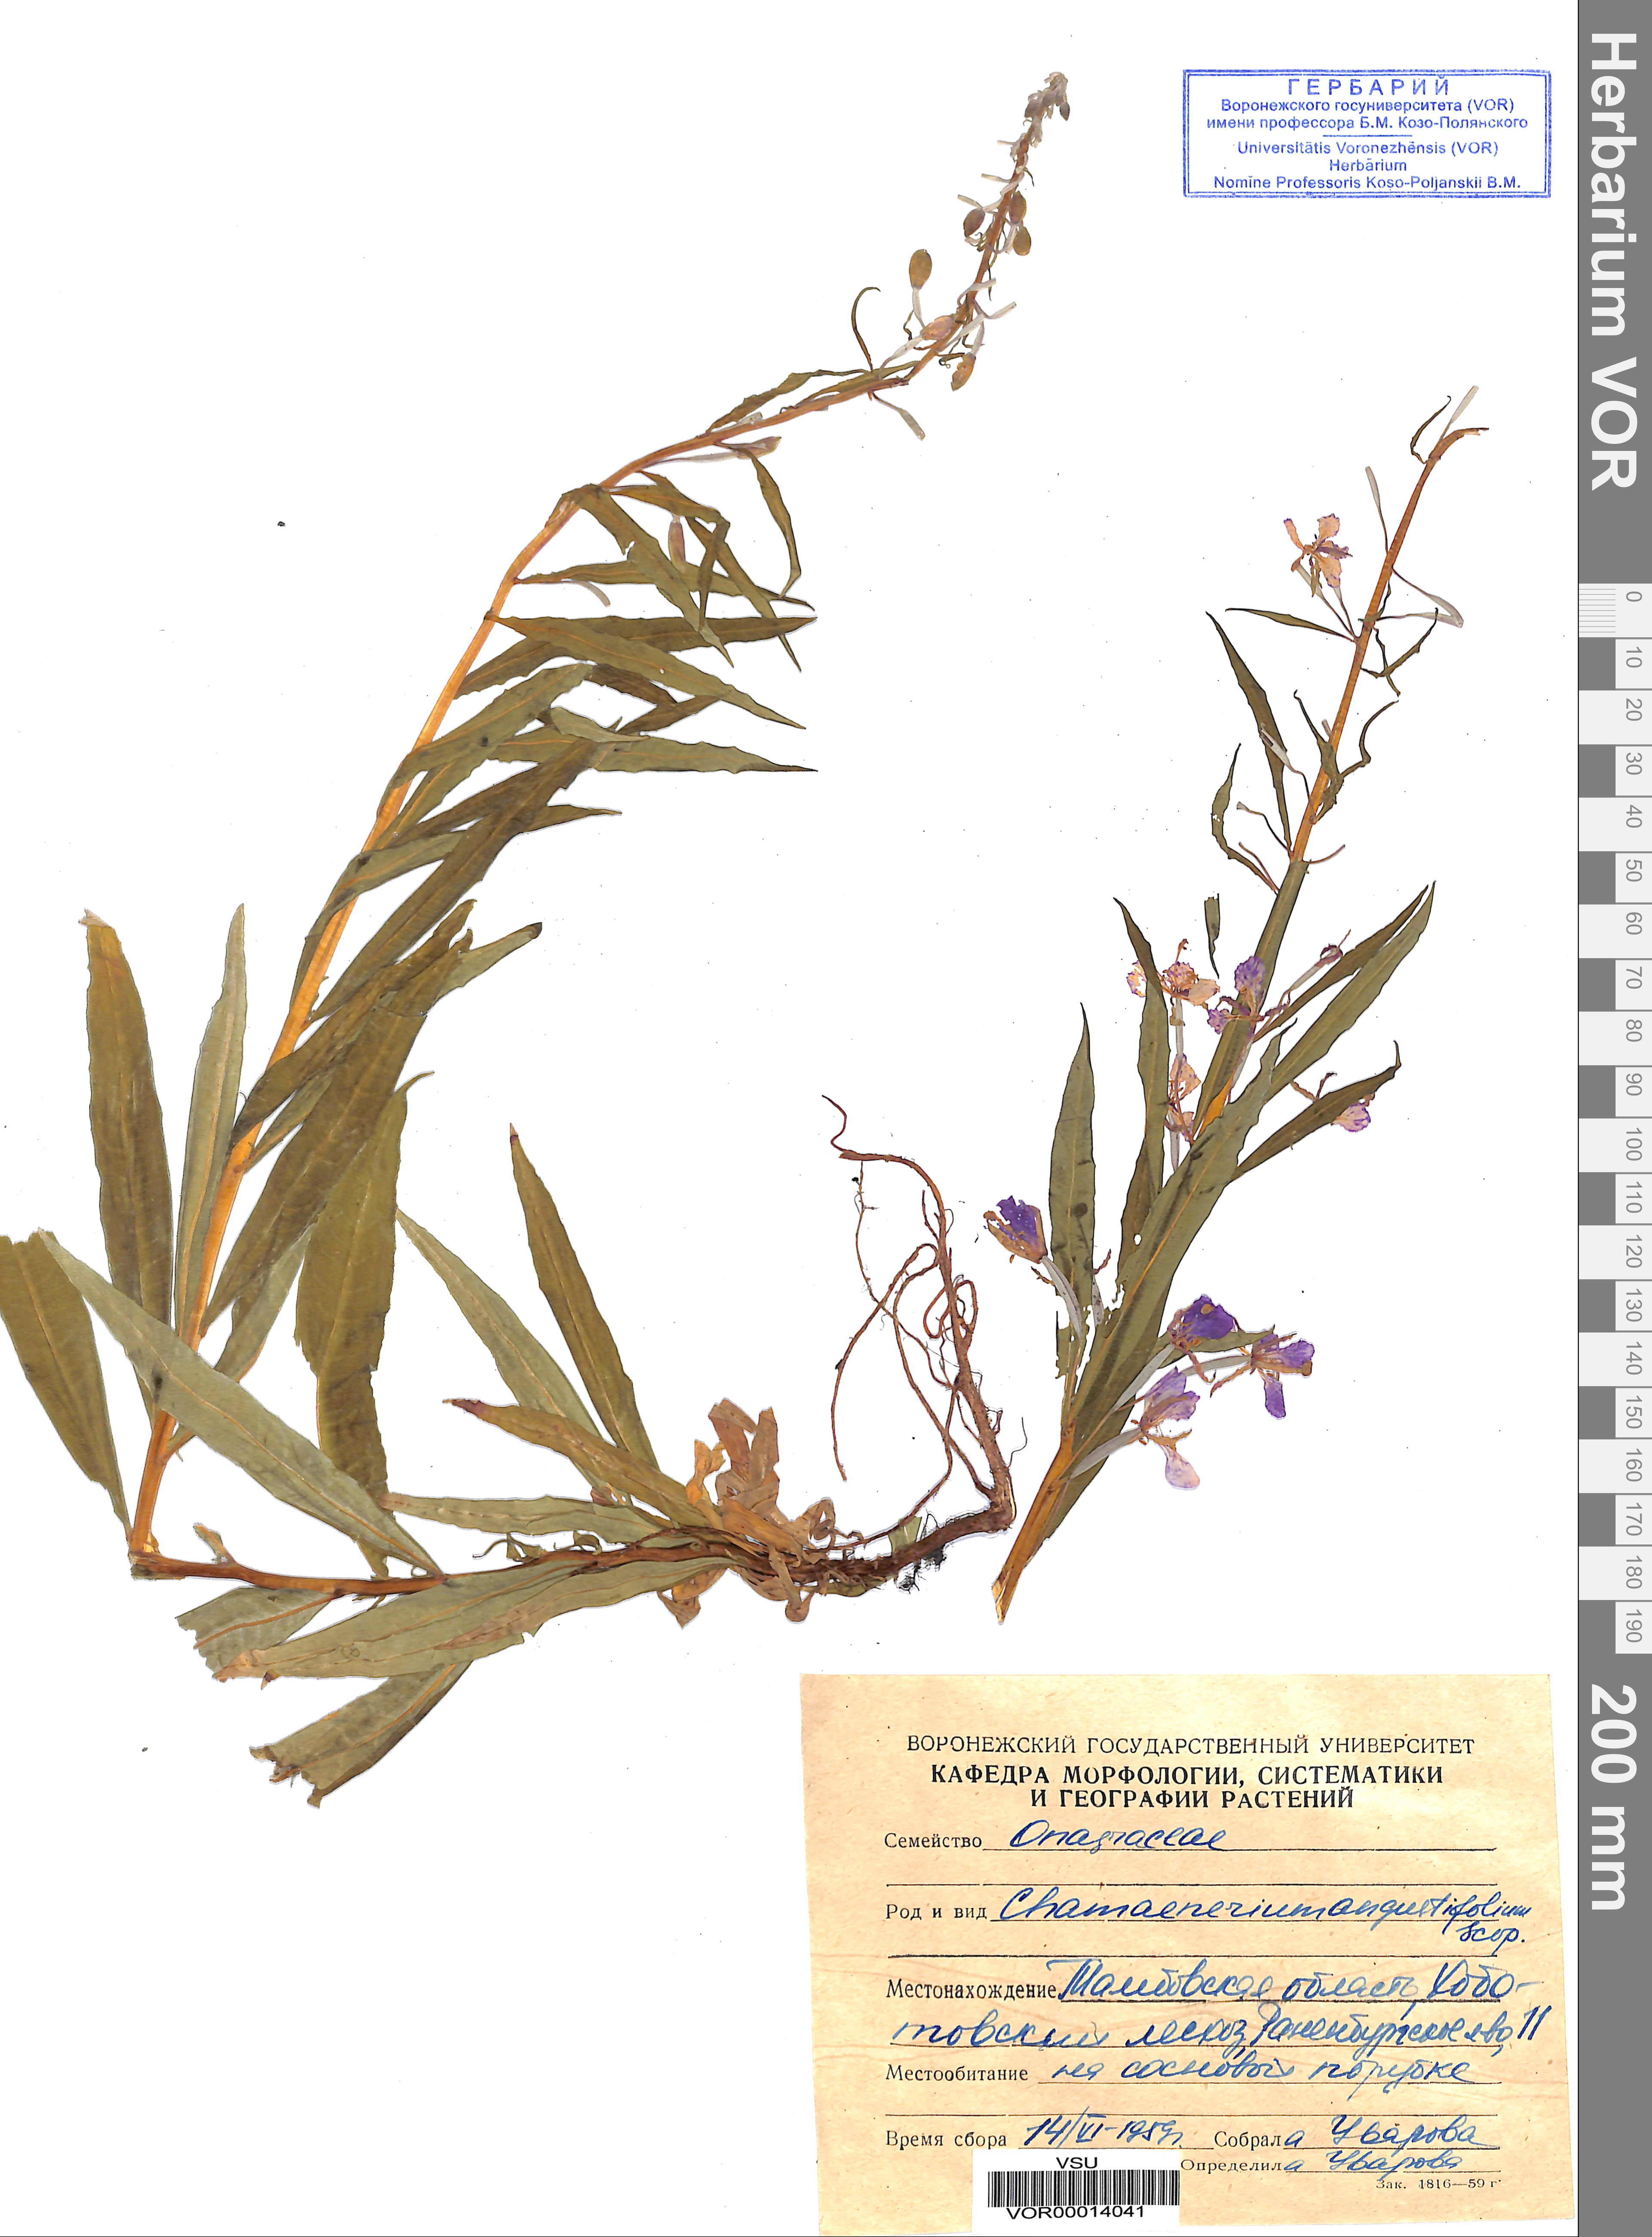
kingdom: Plantae
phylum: Tracheophyta
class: Magnoliopsida
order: Myrtales
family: Onagraceae
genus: Chamaenerion
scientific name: Chamaenerion angustifolium
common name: Fireweed
